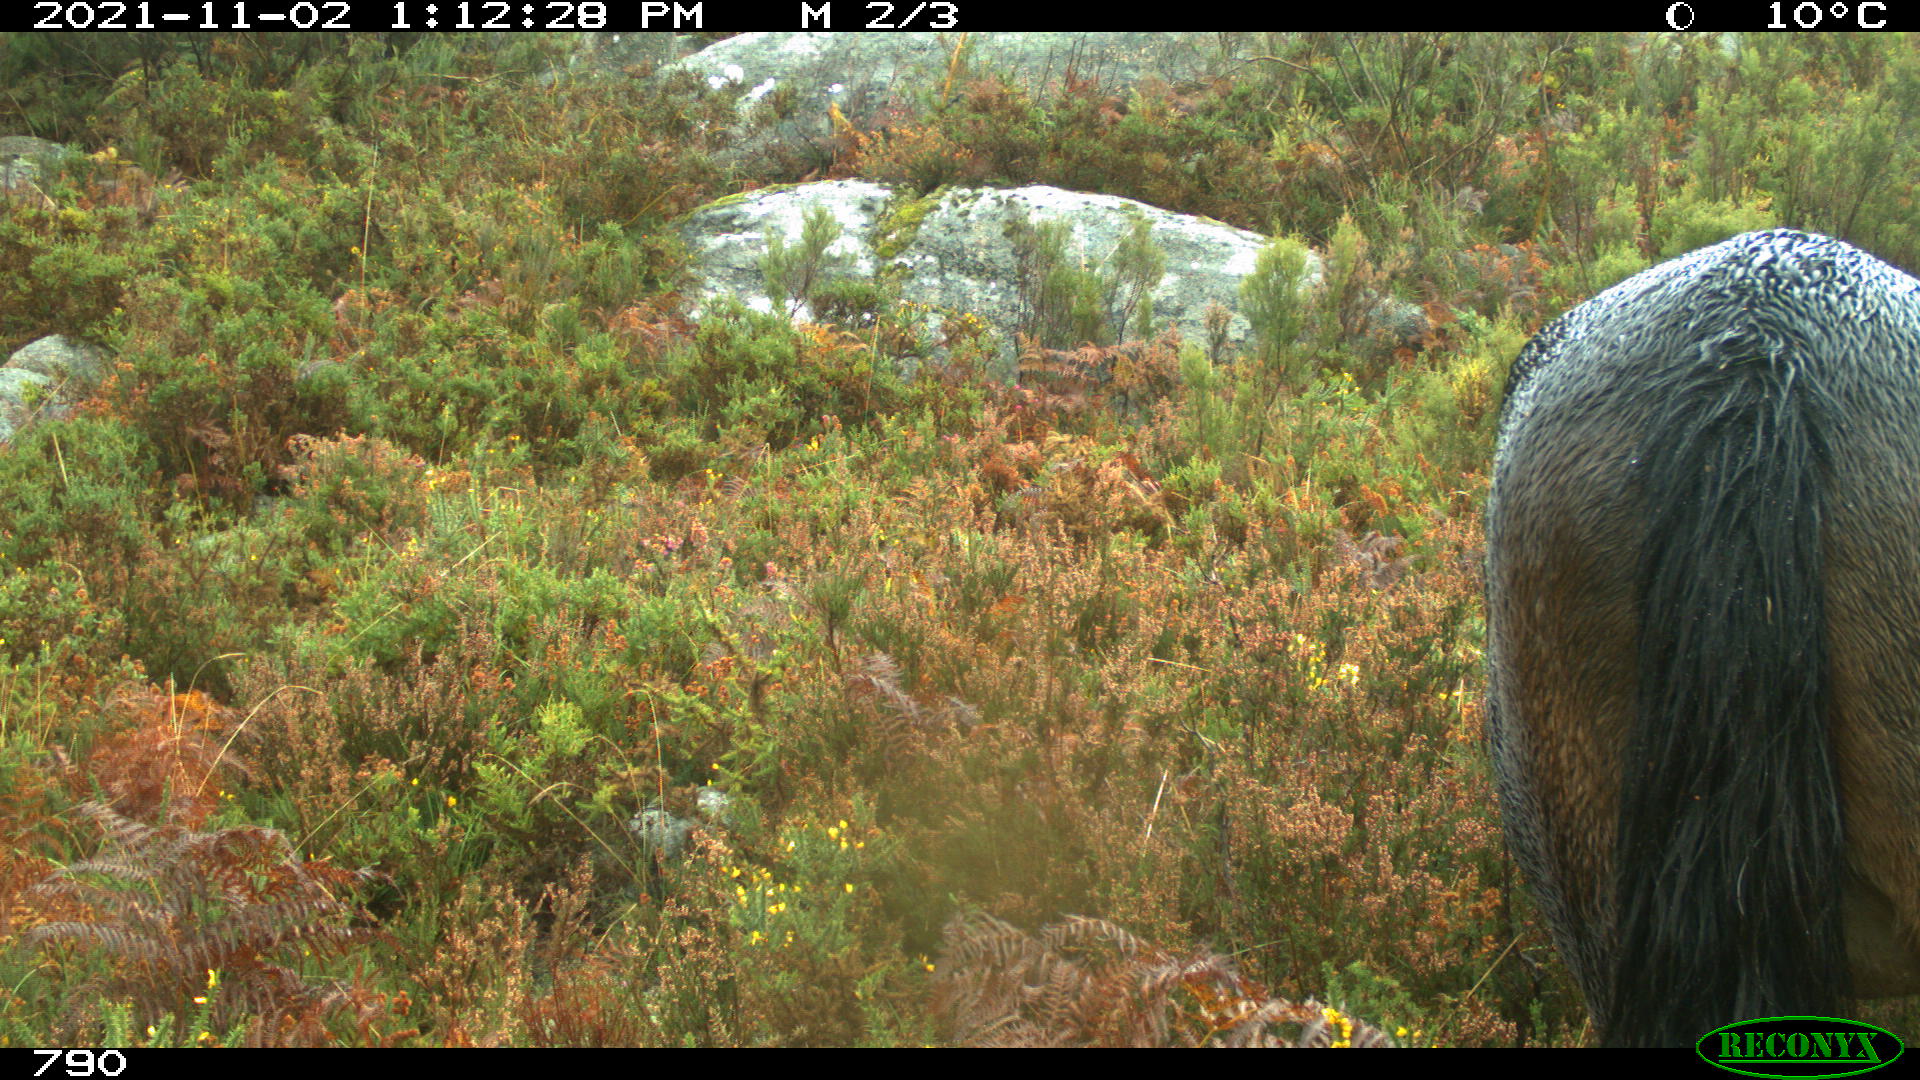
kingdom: Animalia
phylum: Chordata
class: Mammalia
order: Perissodactyla
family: Equidae
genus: Equus
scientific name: Equus caballus
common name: Horse
